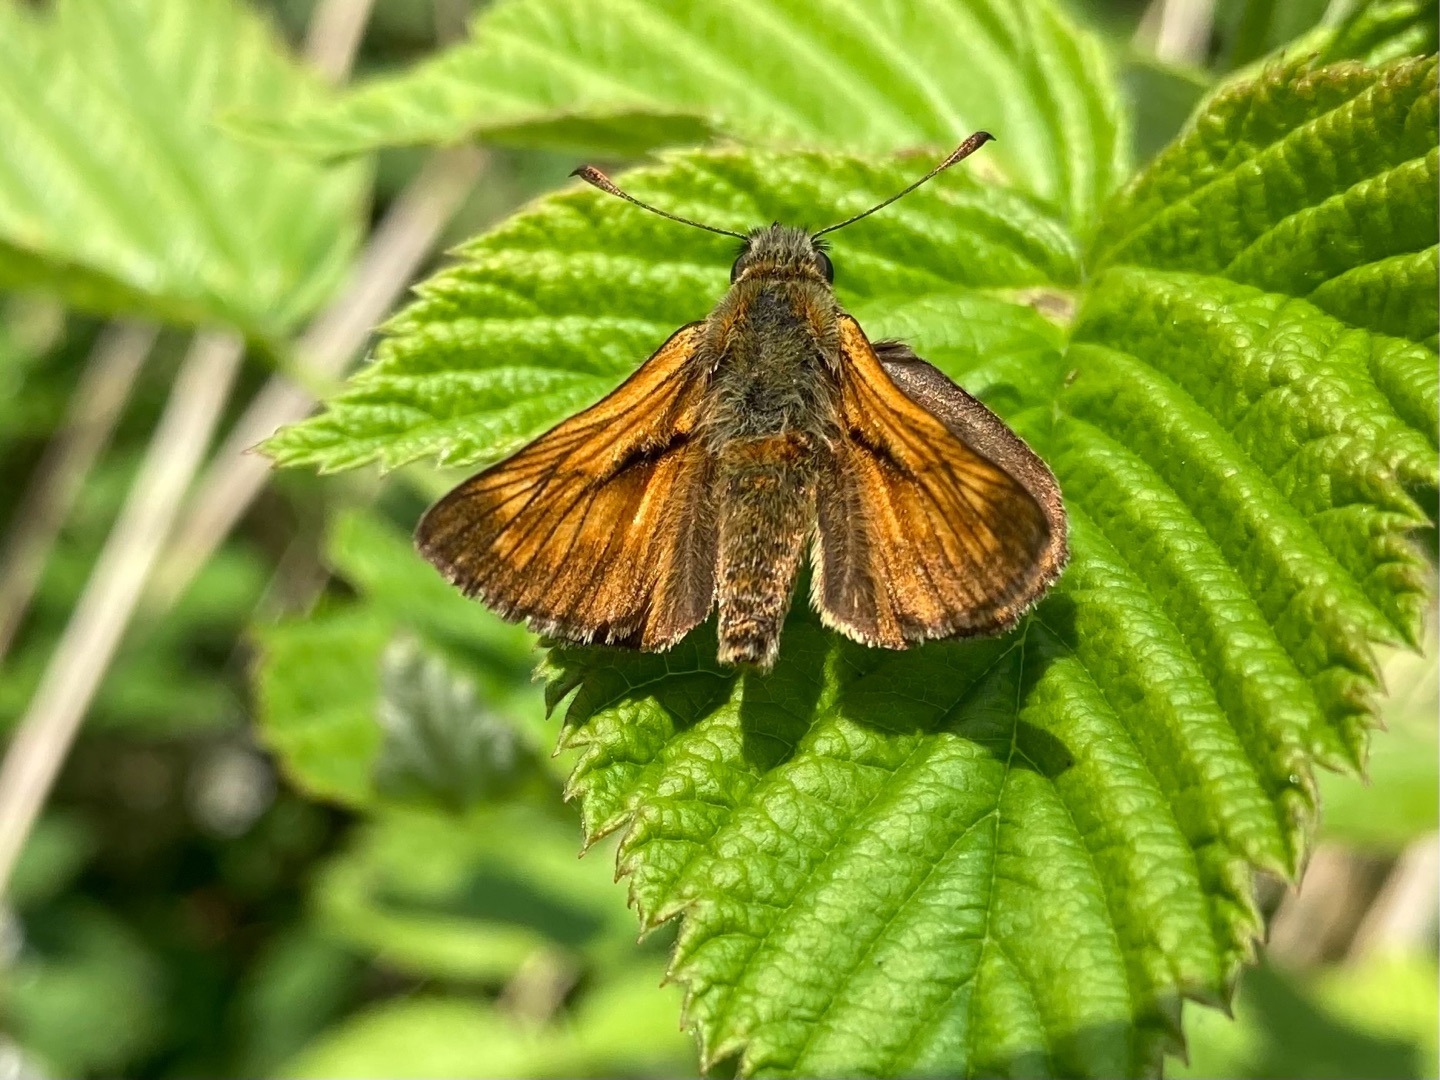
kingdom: Animalia
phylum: Arthropoda
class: Insecta
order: Lepidoptera
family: Hesperiidae
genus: Ochlodes
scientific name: Ochlodes venata
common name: Stor bredpande
